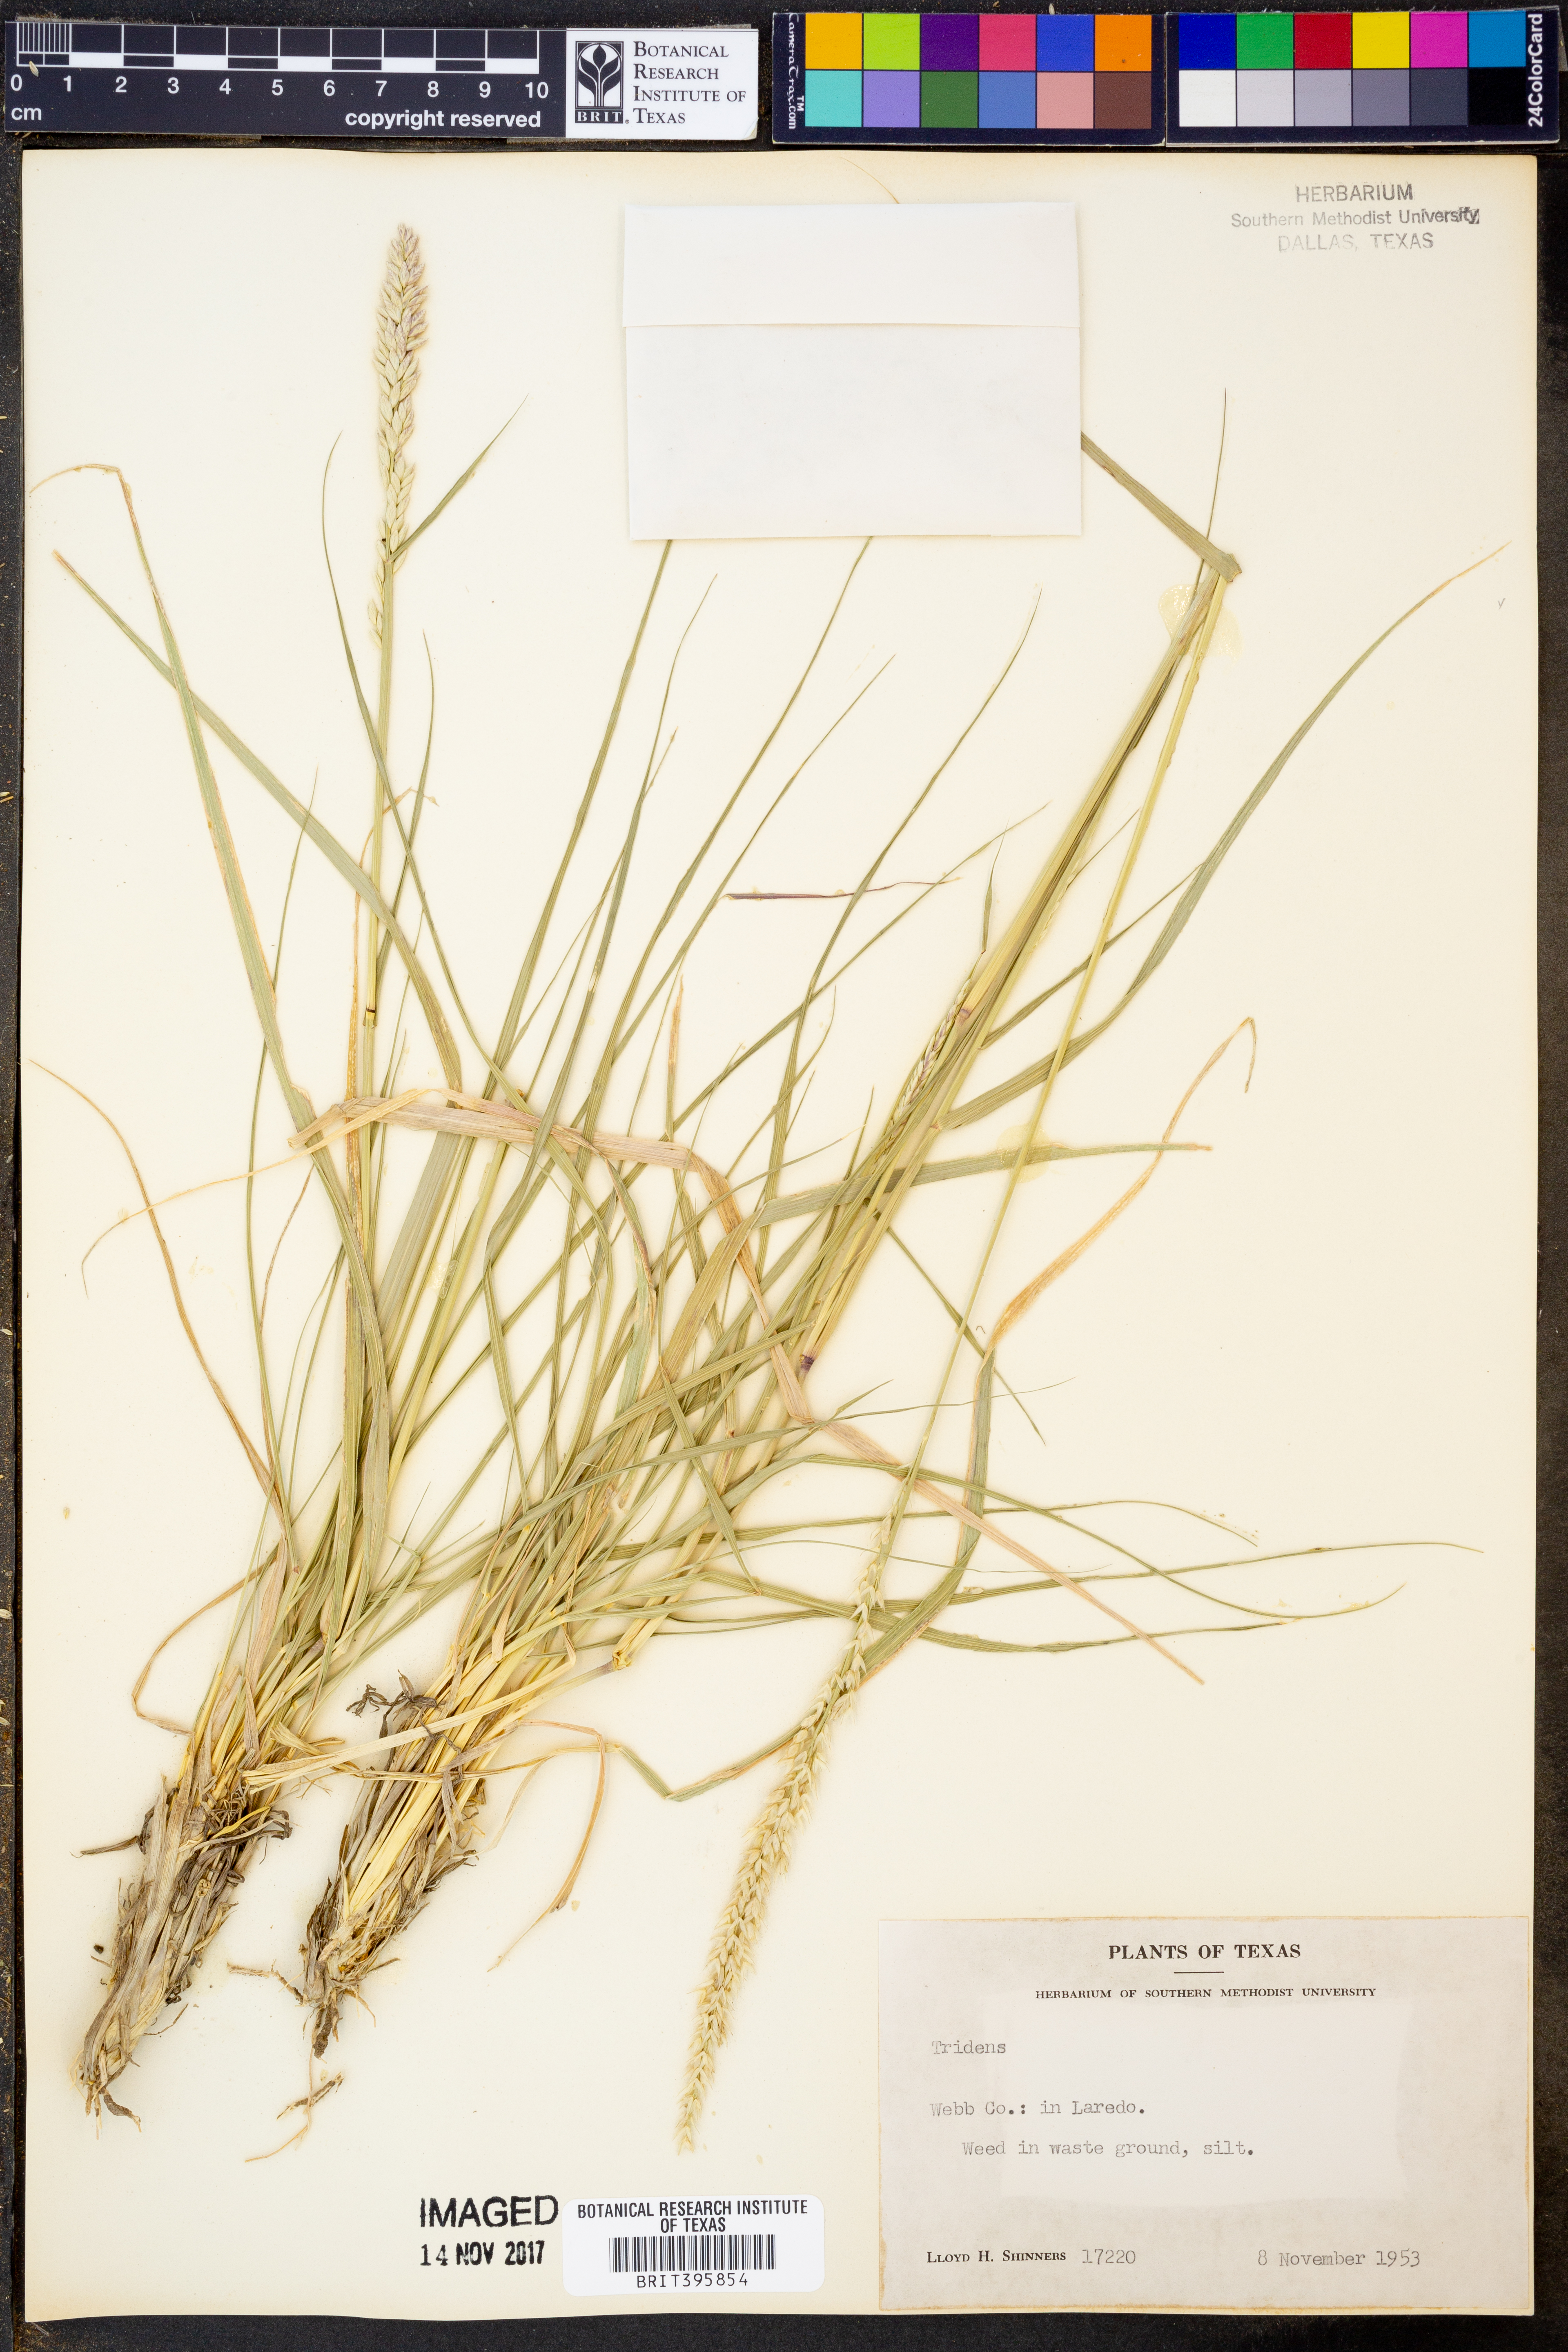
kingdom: Plantae
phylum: Tracheophyta
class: Liliopsida
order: Poales
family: Poaceae
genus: Tridens
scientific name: Tridens
